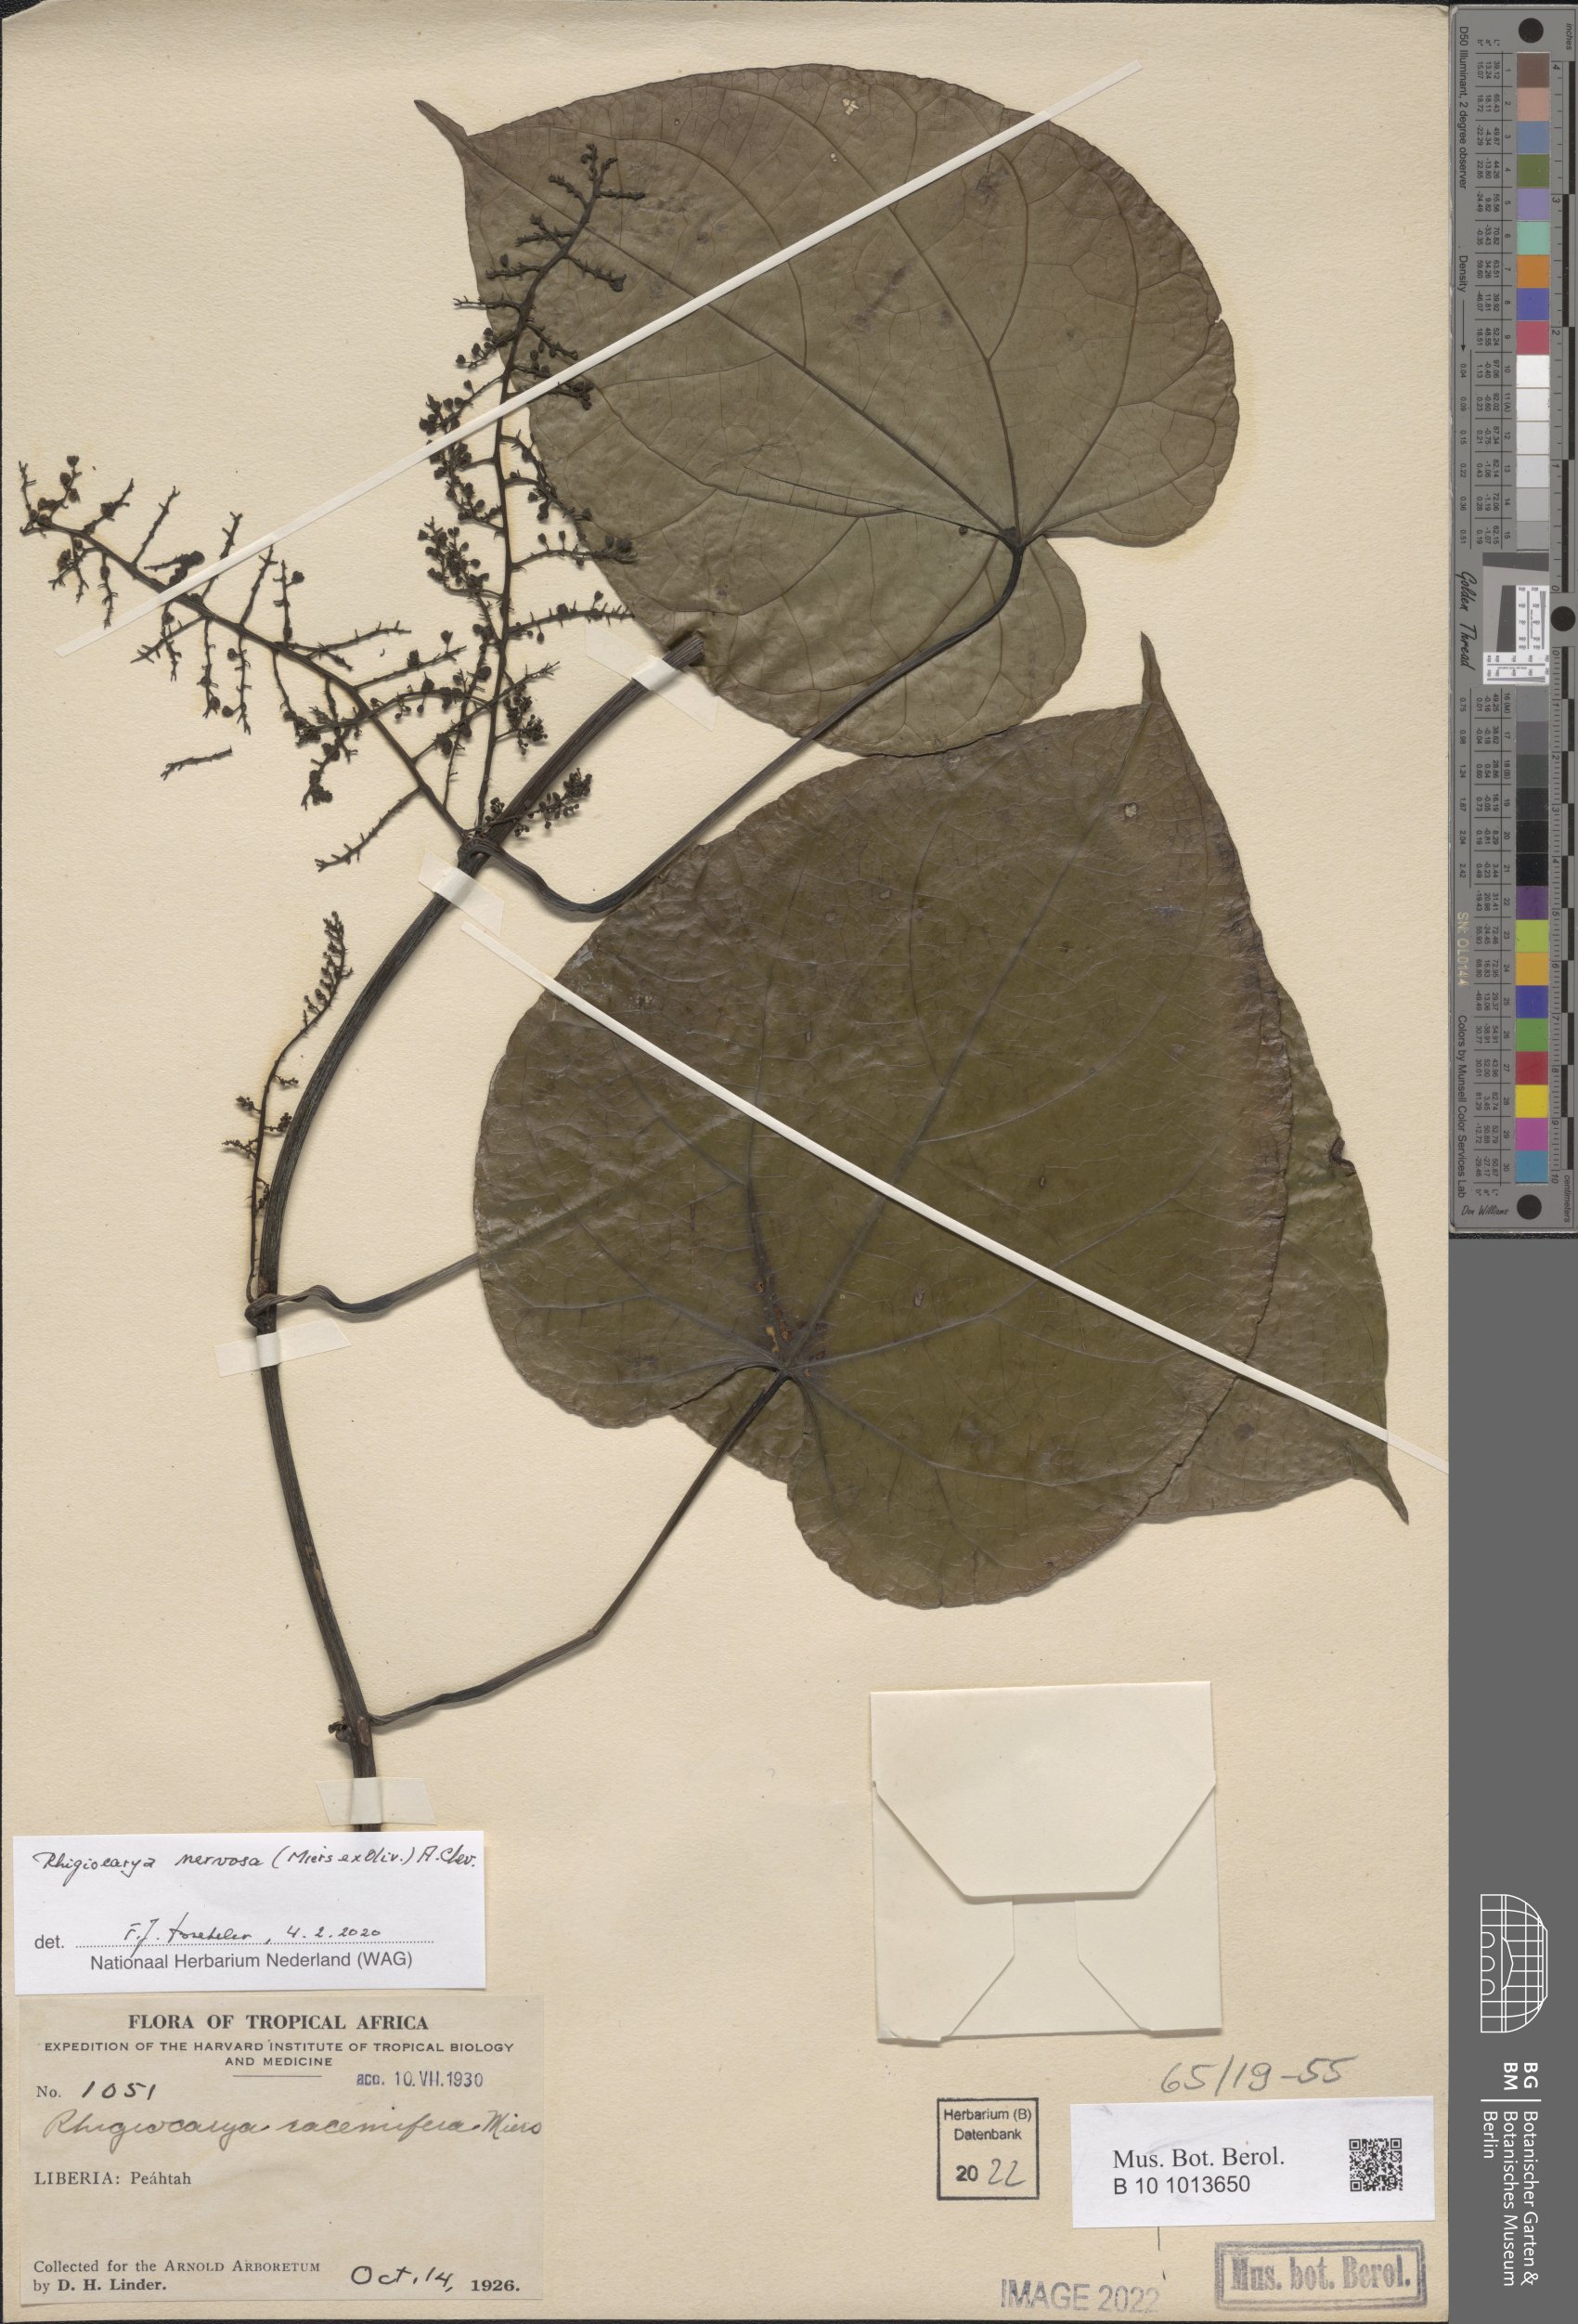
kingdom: Plantae
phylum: Tracheophyta
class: Magnoliopsida
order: Ranunculales
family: Menispermaceae
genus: Rhigiocarya
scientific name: Rhigiocarya racemifera
